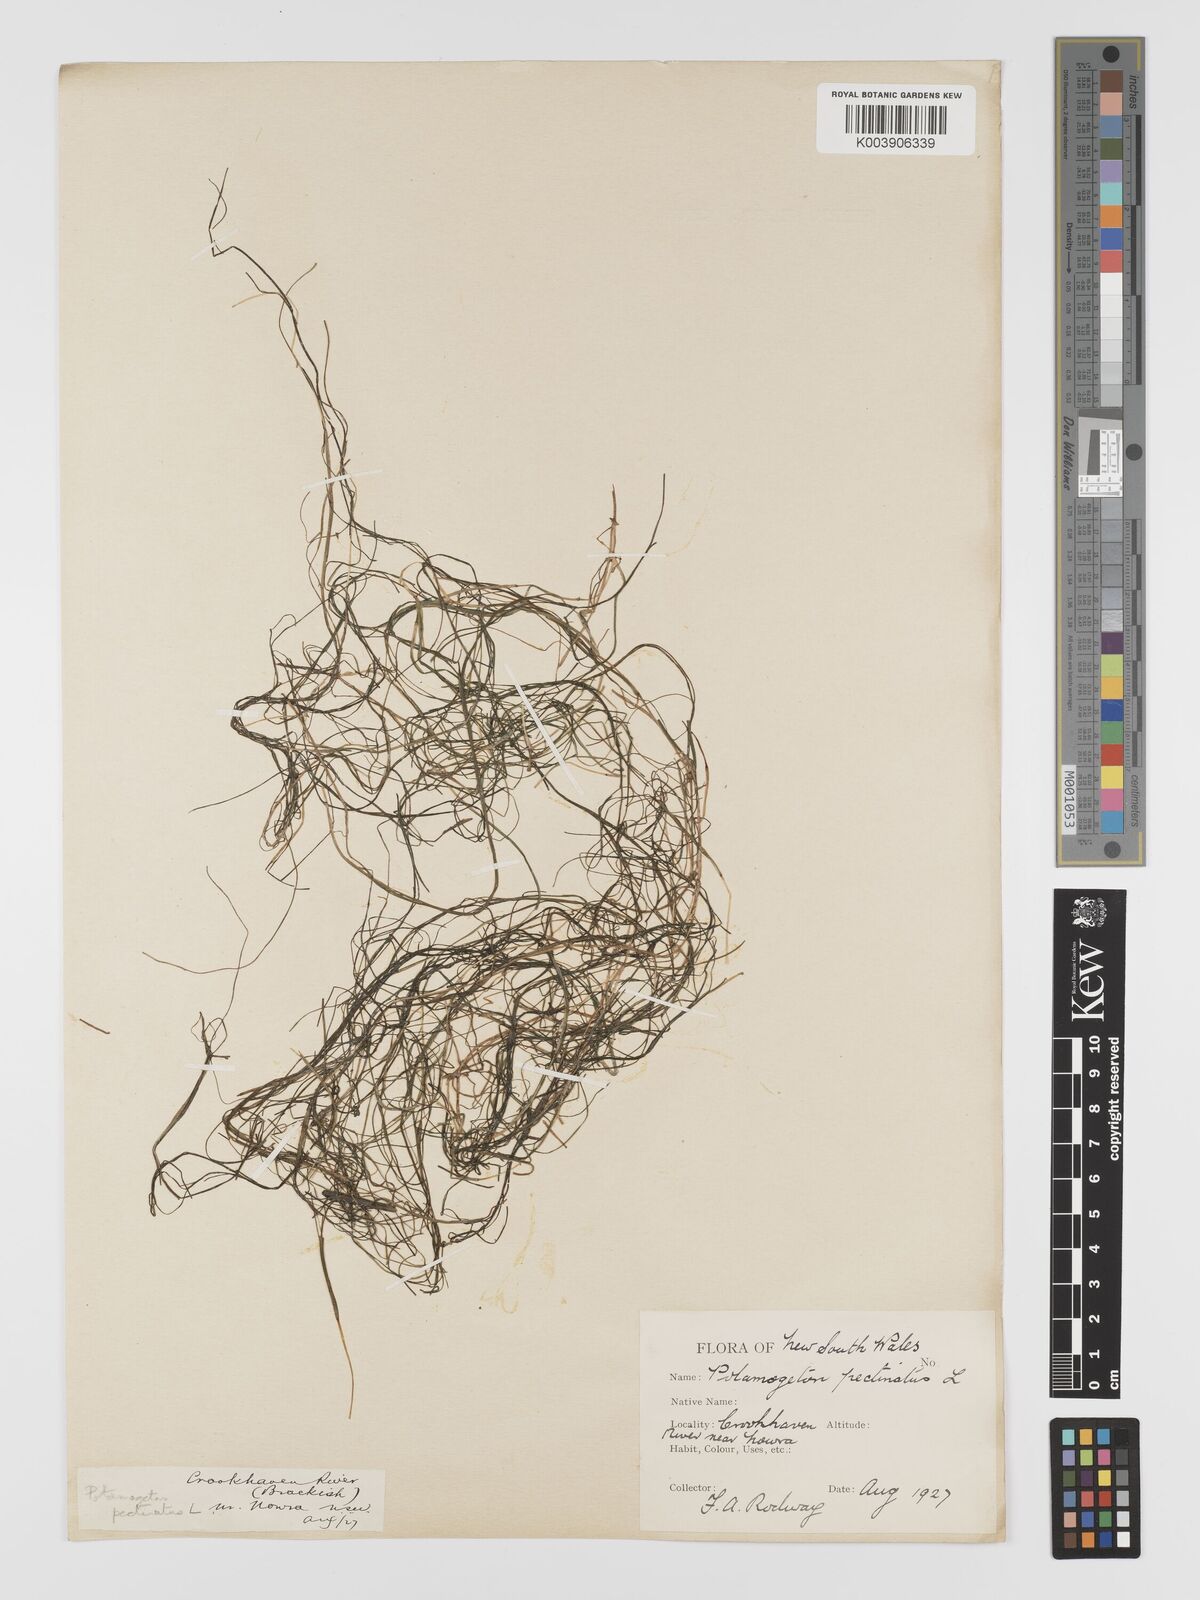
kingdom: Plantae
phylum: Tracheophyta
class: Liliopsida
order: Alismatales
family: Potamogetonaceae
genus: Stuckenia
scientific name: Stuckenia pectinata
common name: Sago pondweed
